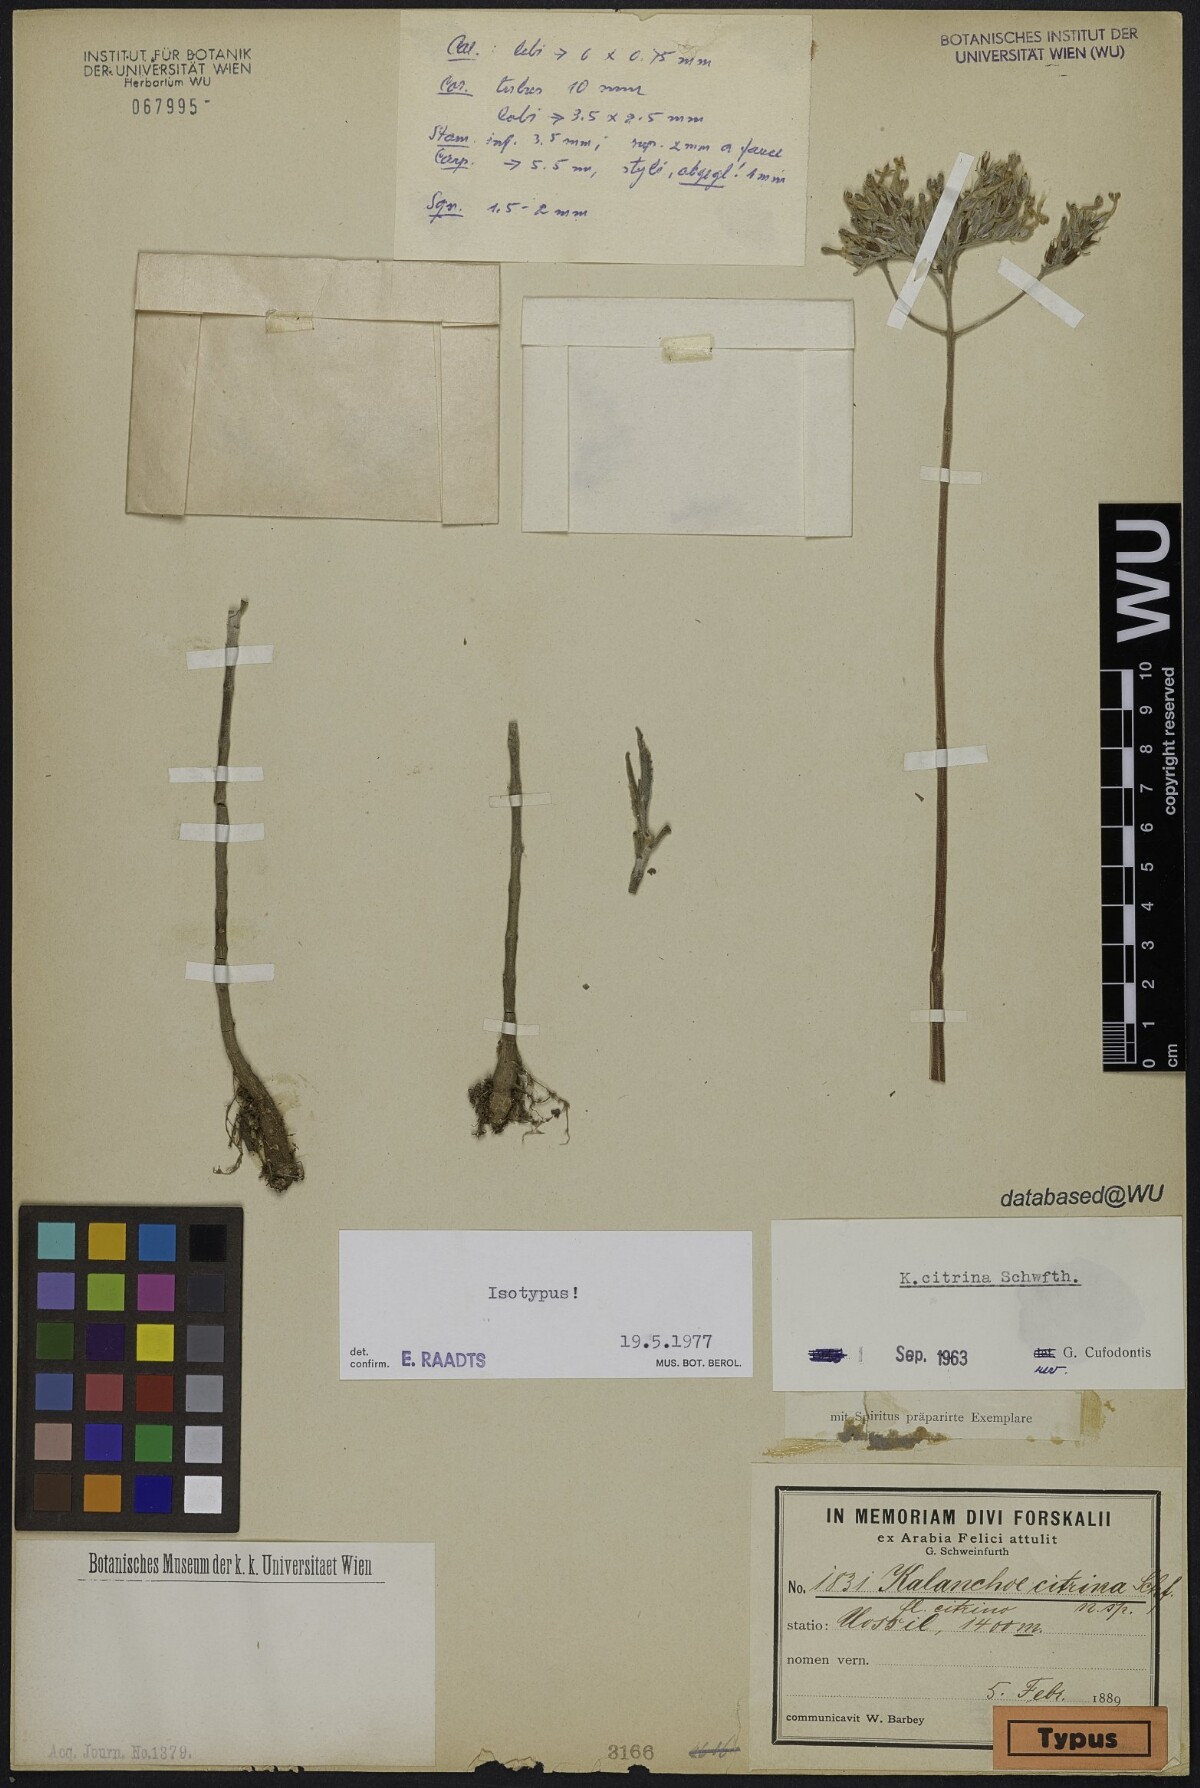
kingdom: Plantae
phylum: Tracheophyta
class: Magnoliopsida
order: Saxifragales
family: Crassulaceae
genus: Kalanchoe
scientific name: Kalanchoe citrina
